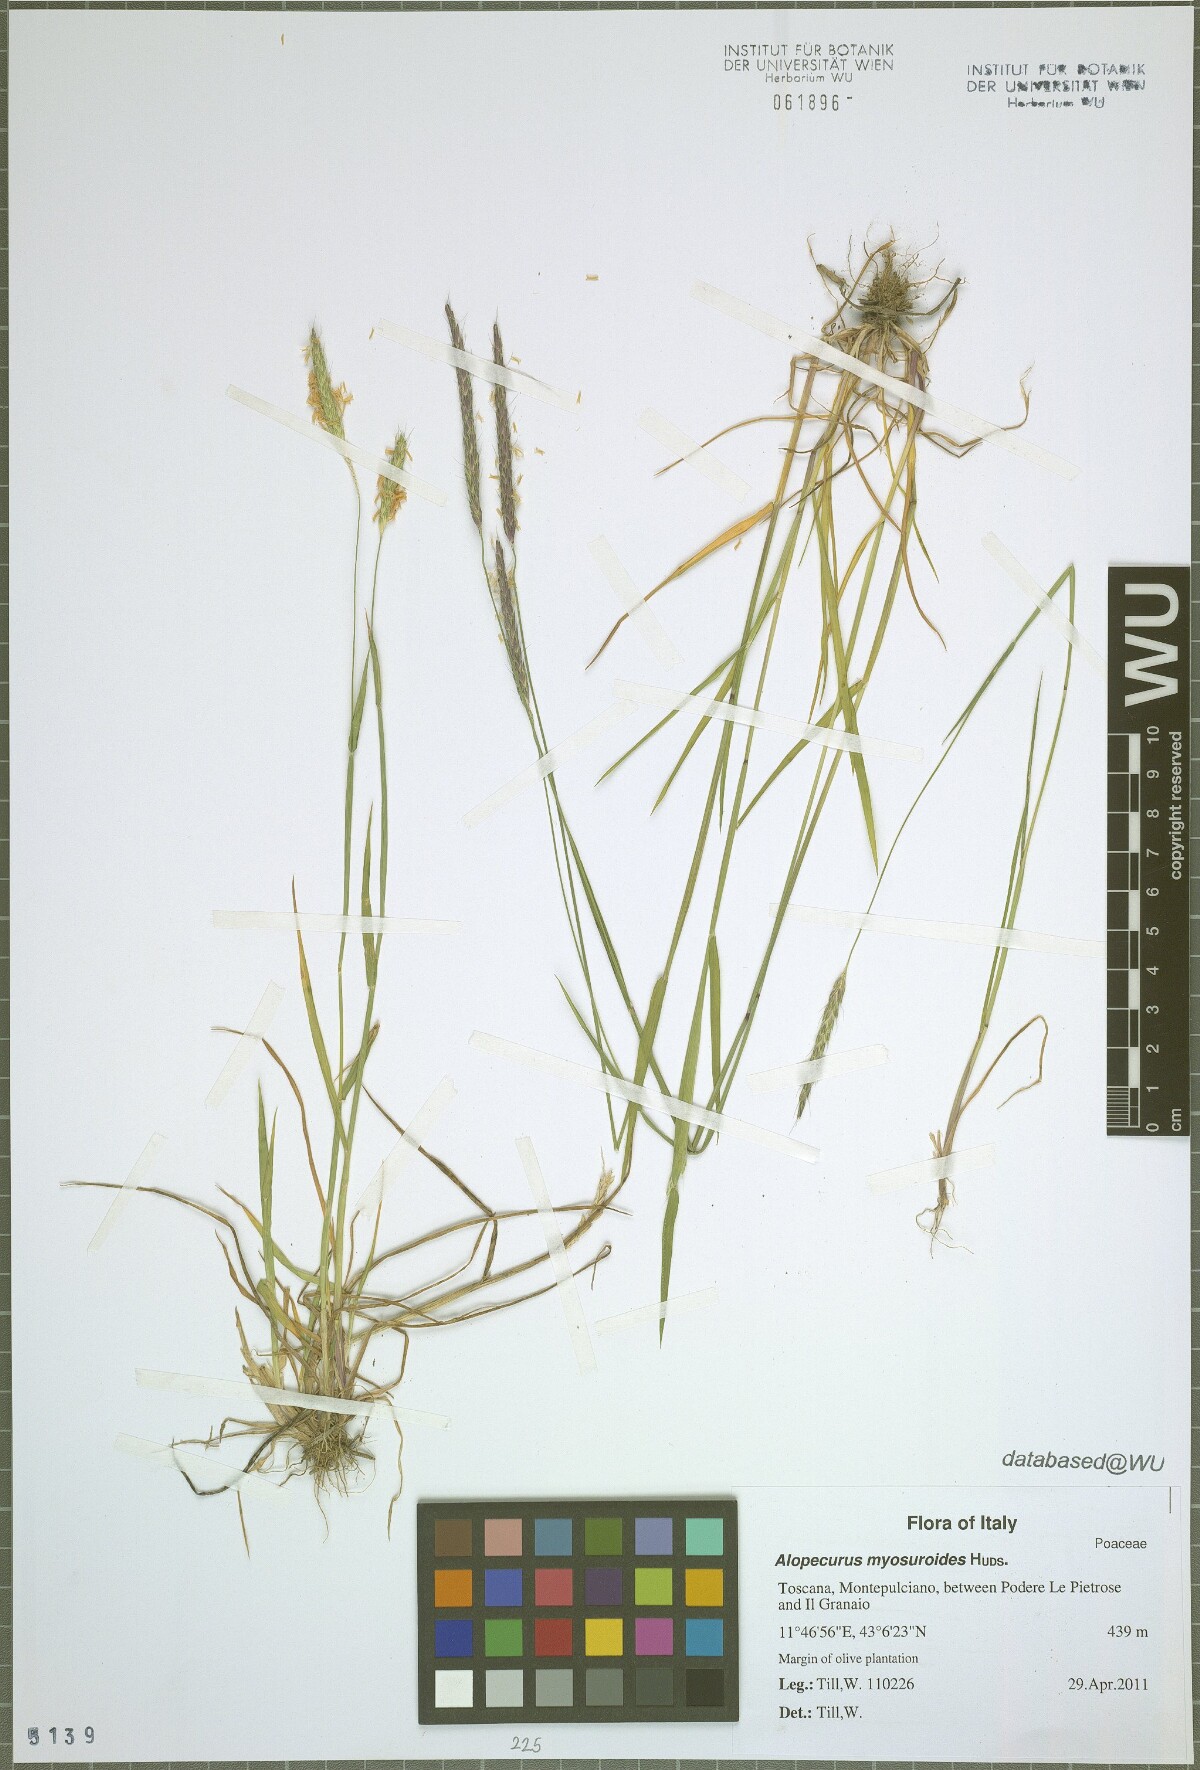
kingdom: Plantae
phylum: Tracheophyta
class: Liliopsida
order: Poales
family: Poaceae
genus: Alopecurus
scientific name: Alopecurus myosuroides
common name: Black-grass
